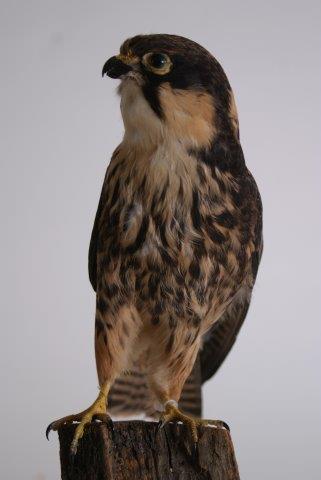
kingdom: Animalia
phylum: Chordata
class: Aves
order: Falconiformes
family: Falconidae
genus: Falco
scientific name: Falco subbuteo
